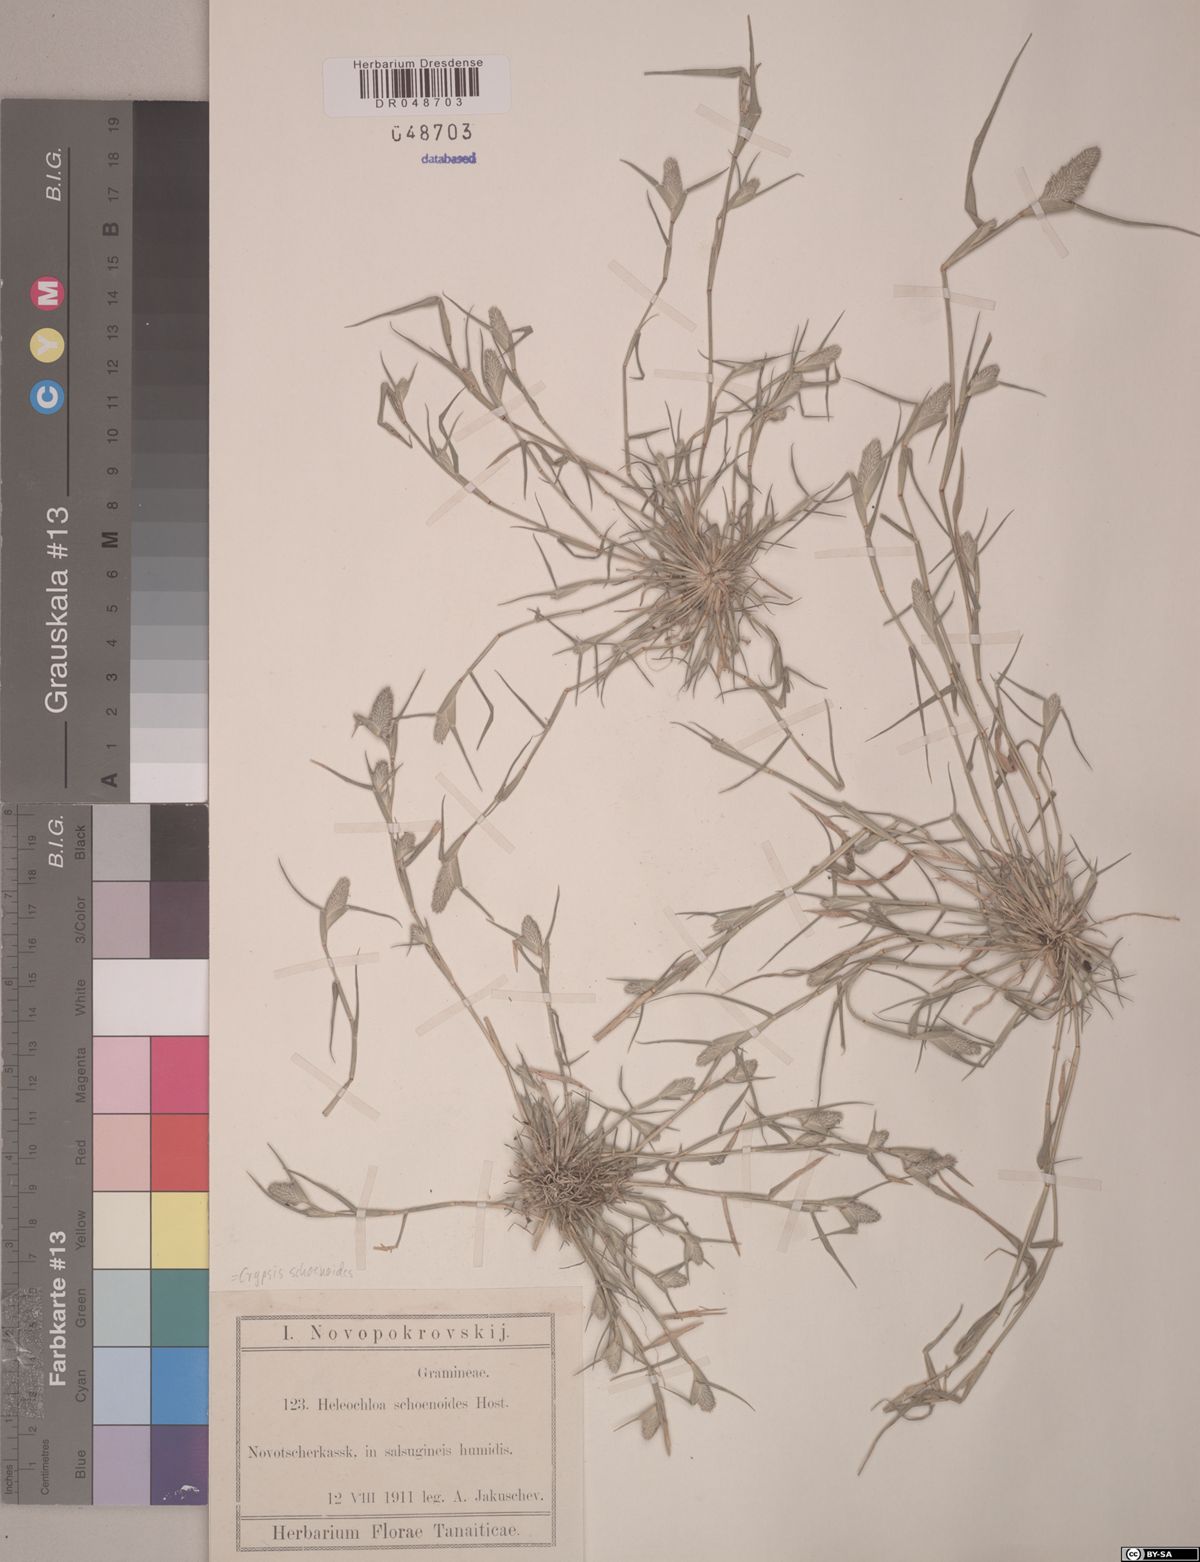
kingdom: Plantae
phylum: Tracheophyta
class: Liliopsida
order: Poales
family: Poaceae
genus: Sporobolus
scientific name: Sporobolus schoenoides
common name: Rush-like timothy
